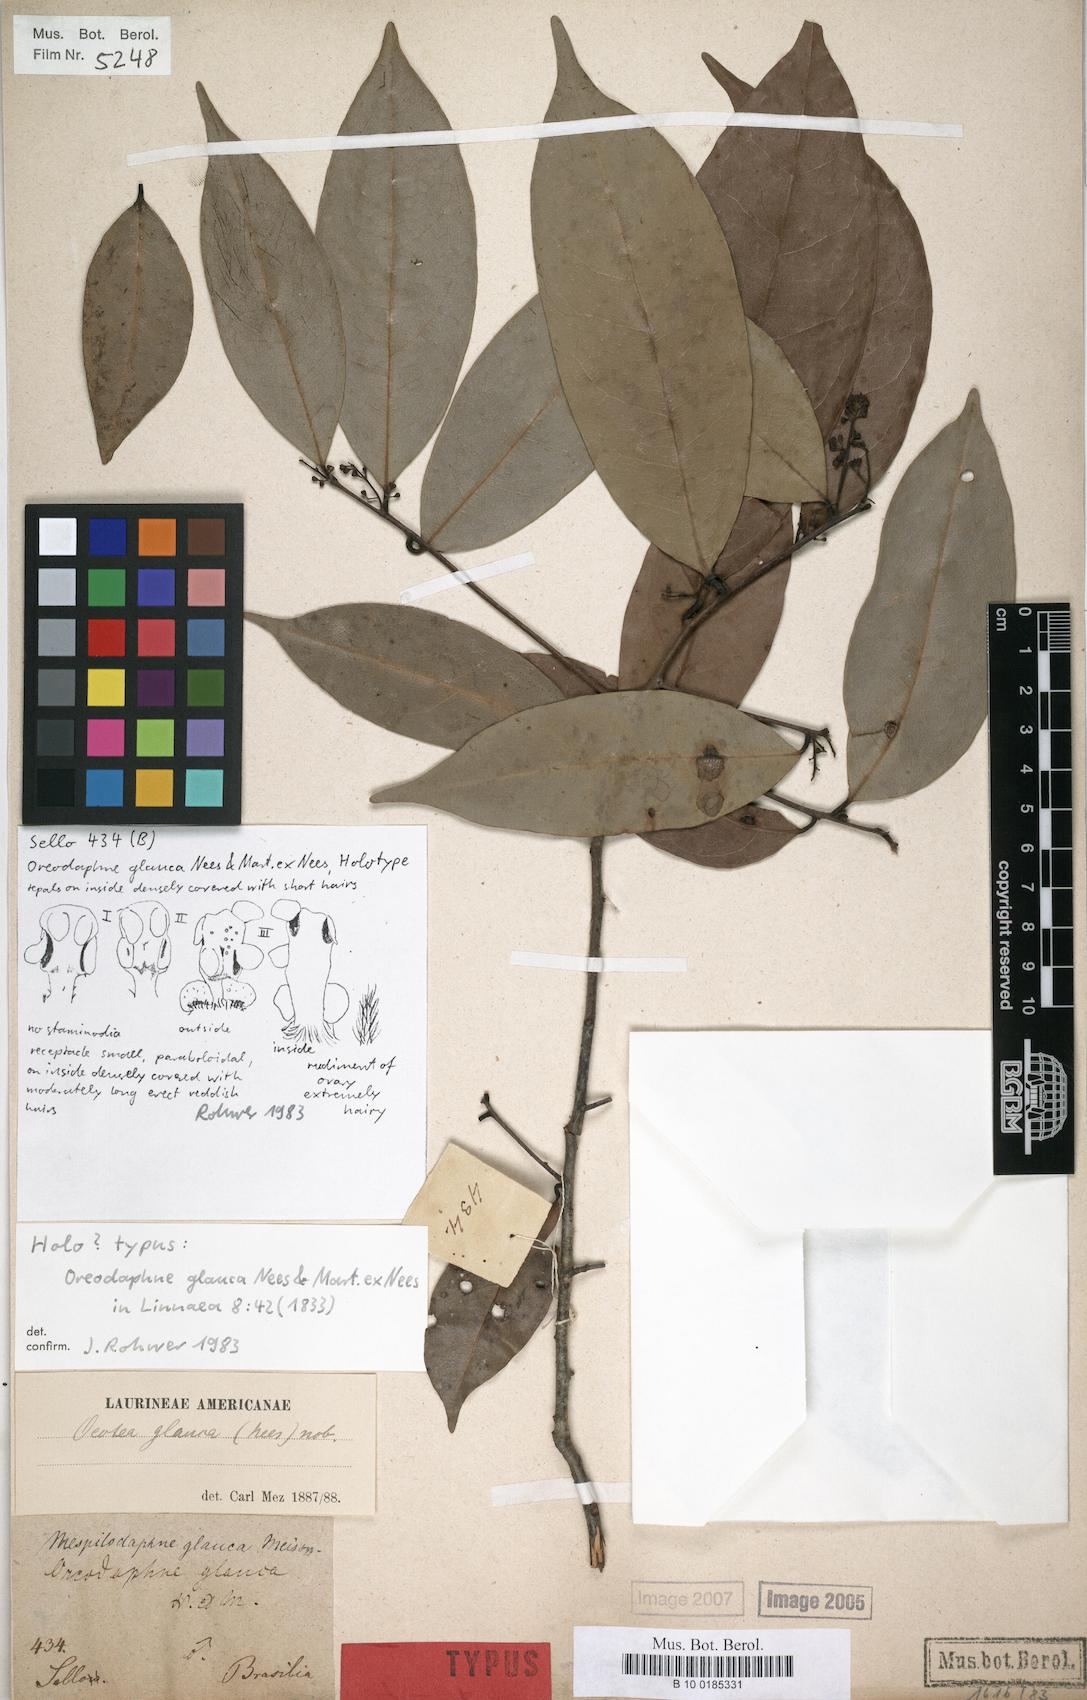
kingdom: Plantae
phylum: Tracheophyta
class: Magnoliopsida
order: Laurales
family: Lauraceae
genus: Mespilodaphne
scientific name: Mespilodaphne glauca
